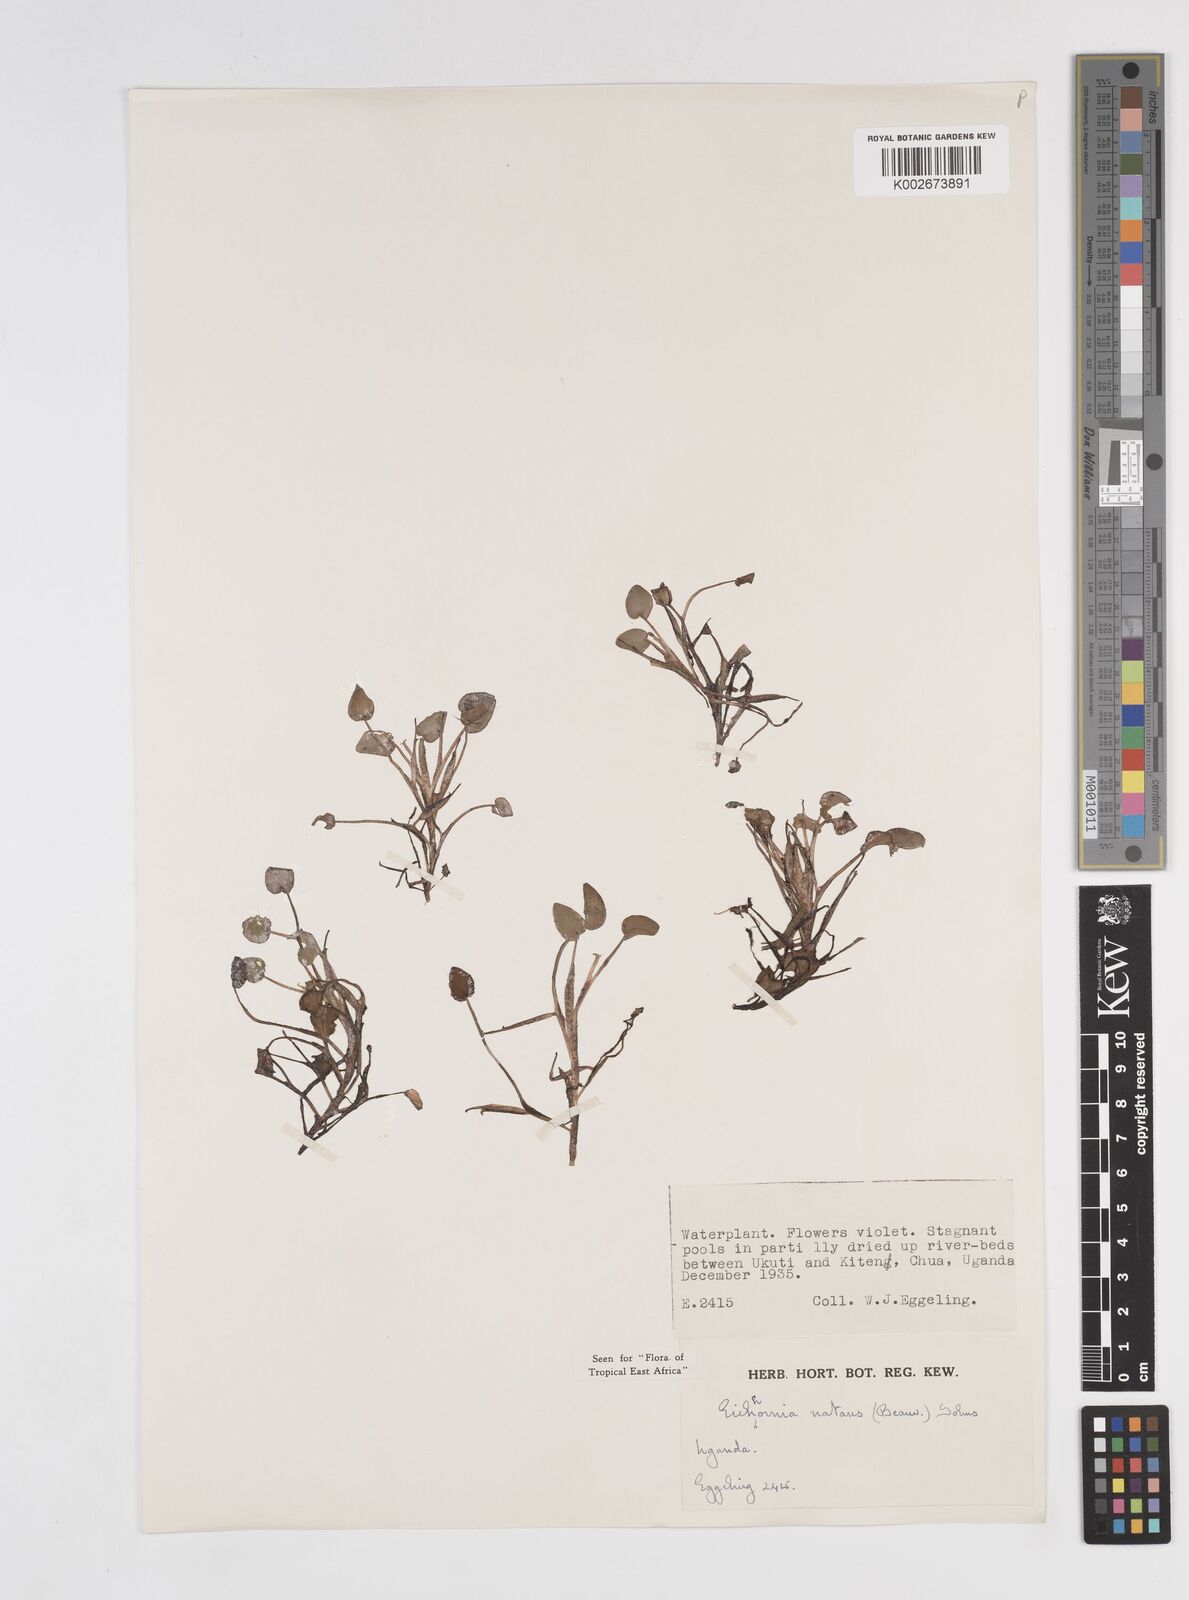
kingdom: Plantae
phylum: Tracheophyta
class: Liliopsida
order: Commelinales
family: Pontederiaceae
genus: Pontederia
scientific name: Pontederia diversifolia
